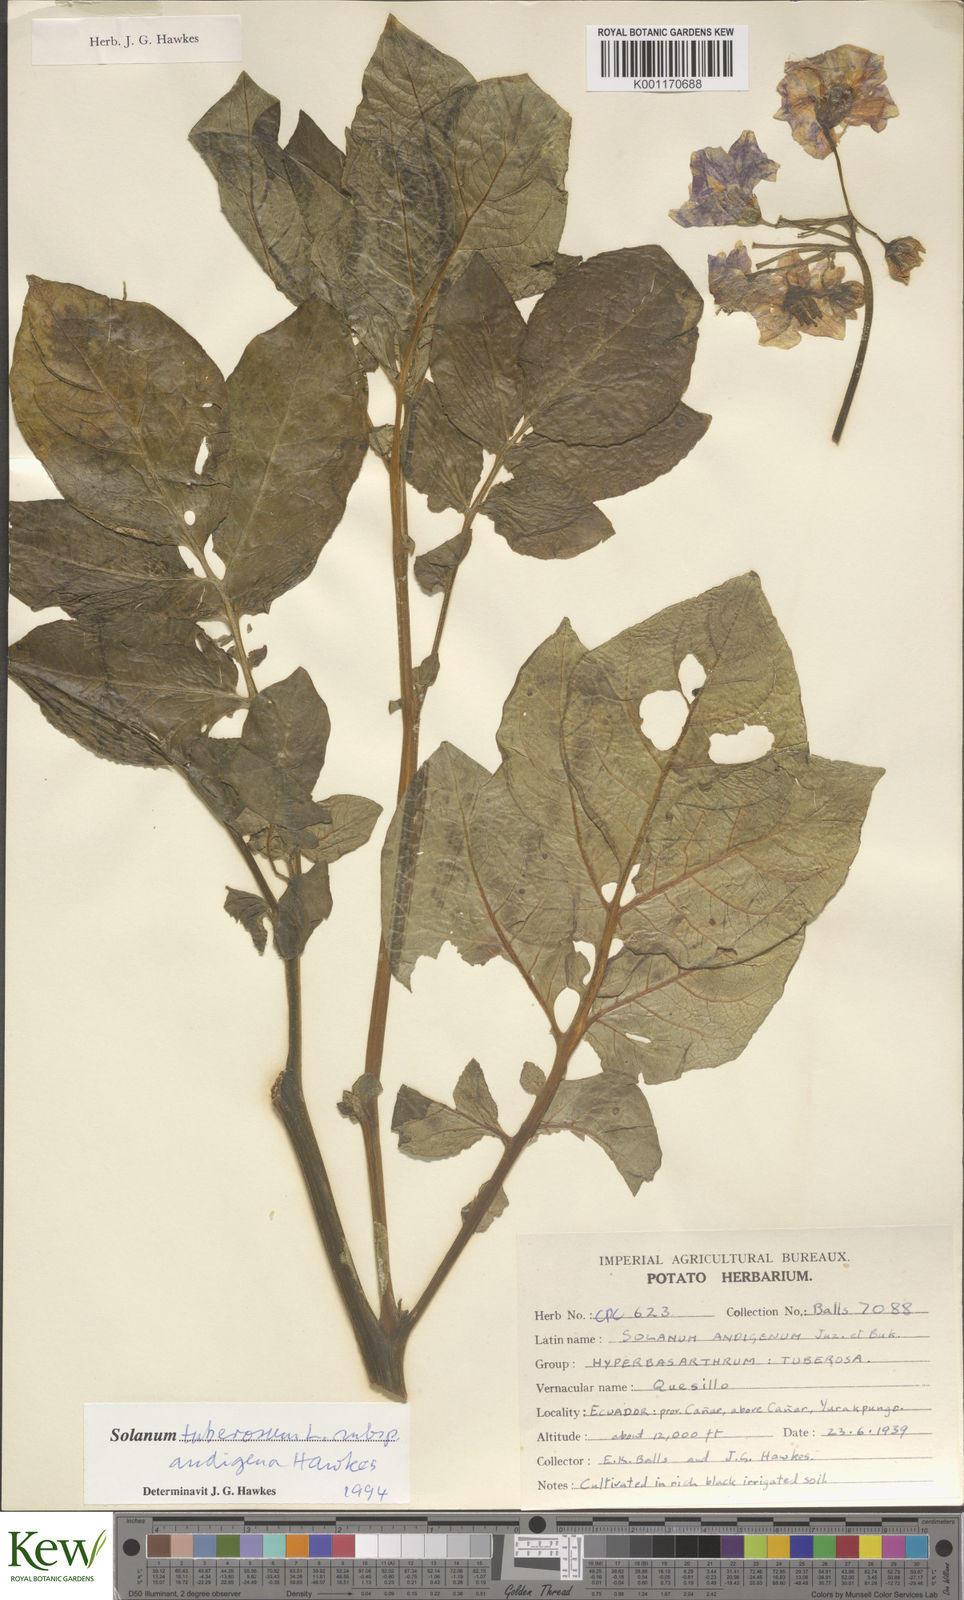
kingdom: Plantae
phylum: Tracheophyta
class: Magnoliopsida
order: Solanales
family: Solanaceae
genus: Solanum
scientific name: Solanum tuberosum
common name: Potato
